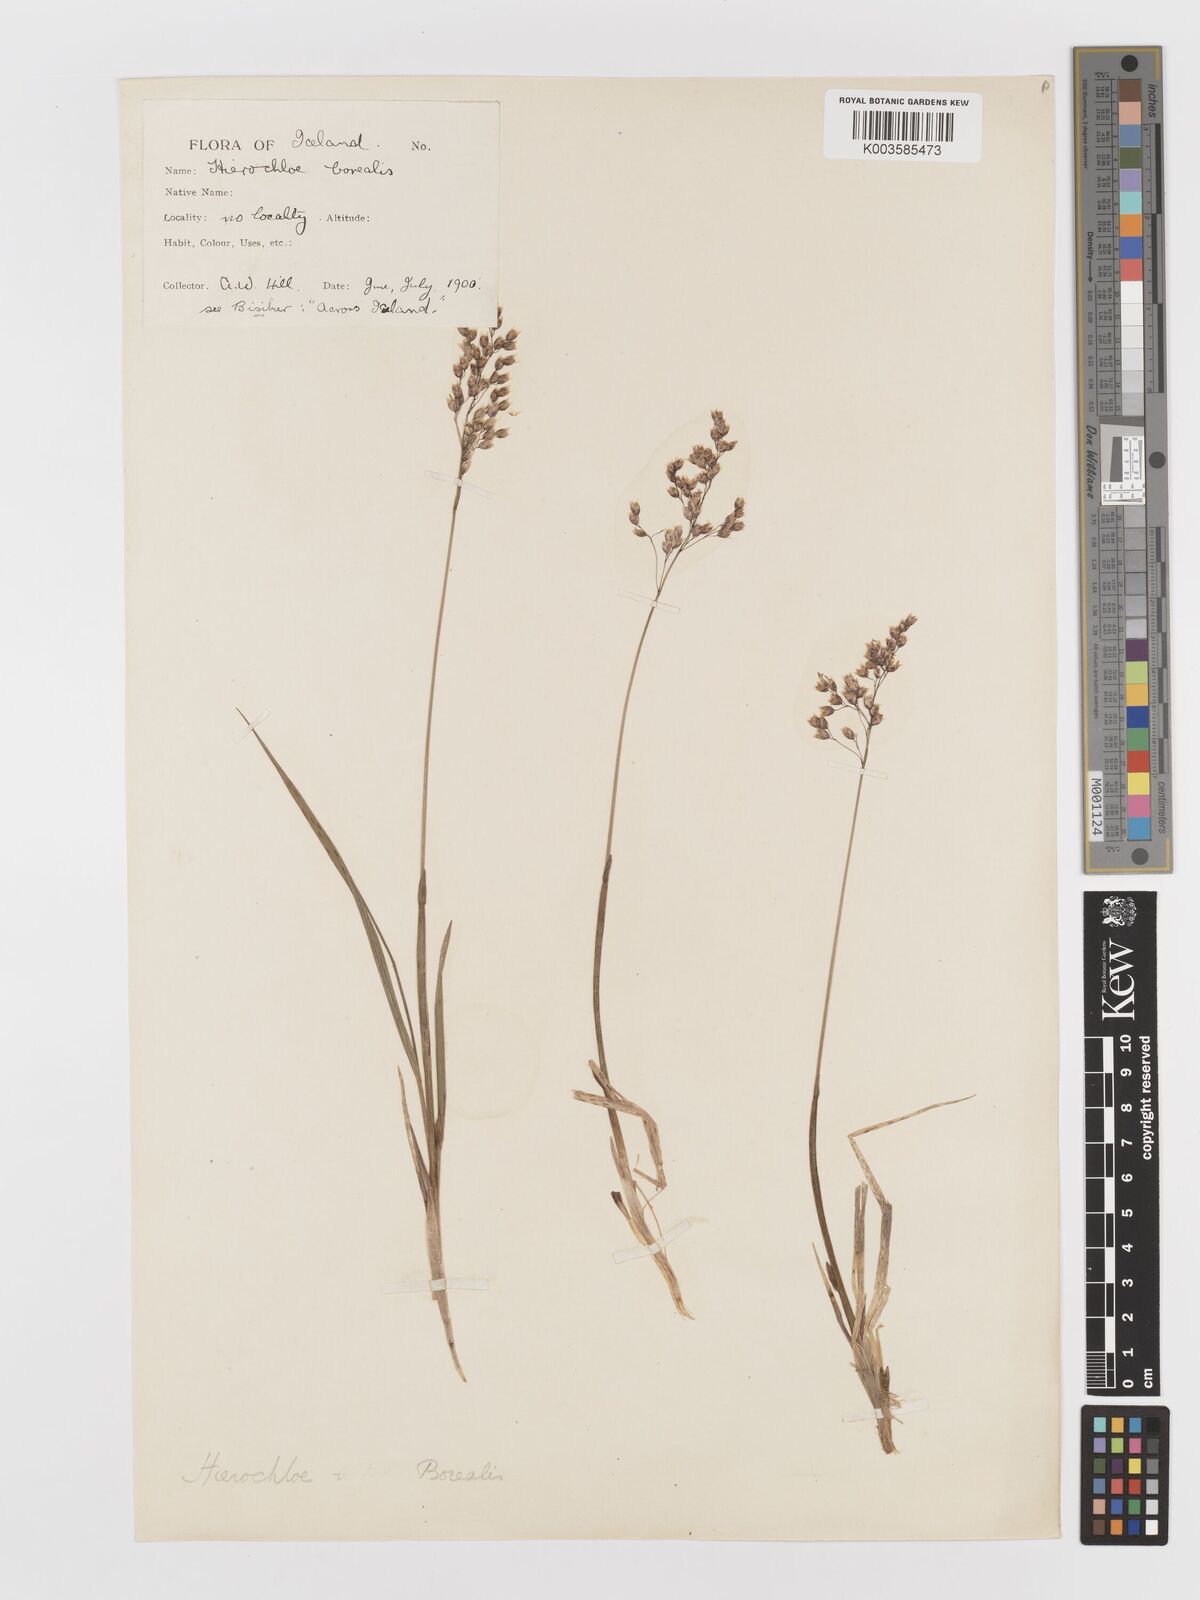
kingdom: Plantae
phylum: Tracheophyta
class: Liliopsida
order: Poales
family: Poaceae
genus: Anthoxanthum
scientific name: Anthoxanthum nitens
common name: Holy grass
